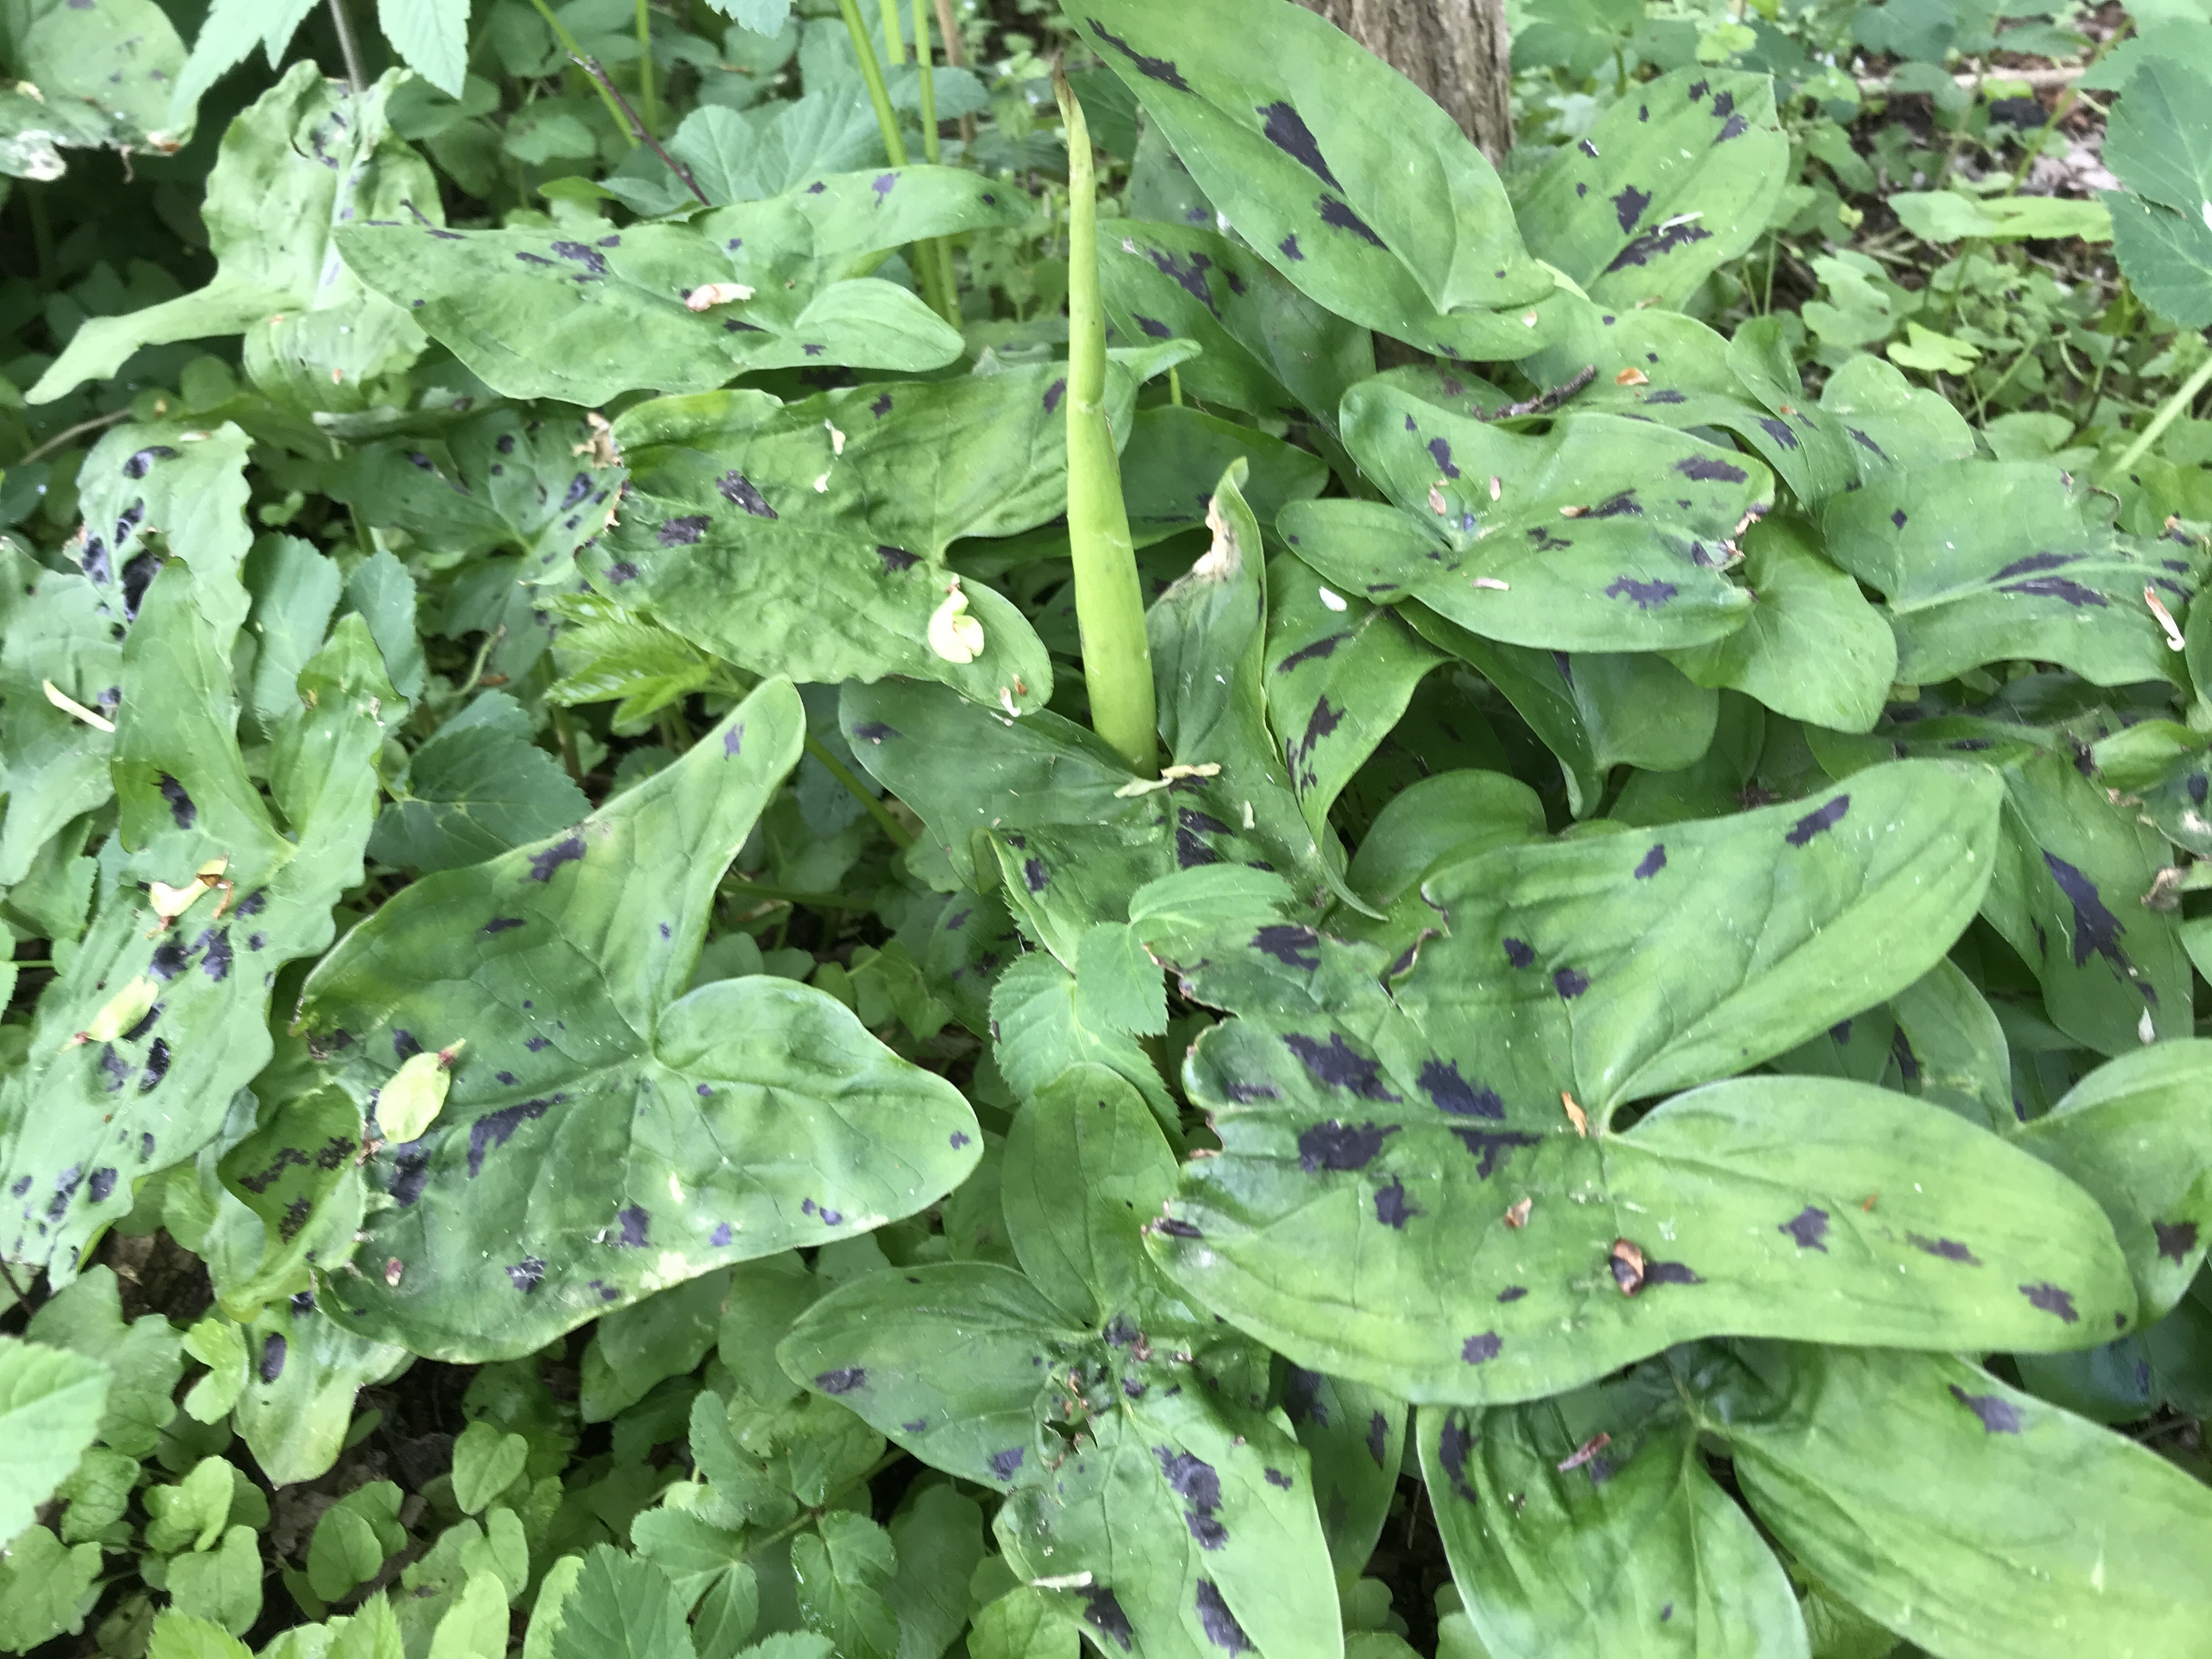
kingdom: Plantae
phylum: Tracheophyta
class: Liliopsida
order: Alismatales
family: Araceae
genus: Arum
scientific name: Arum maculatum
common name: Plettet arum
